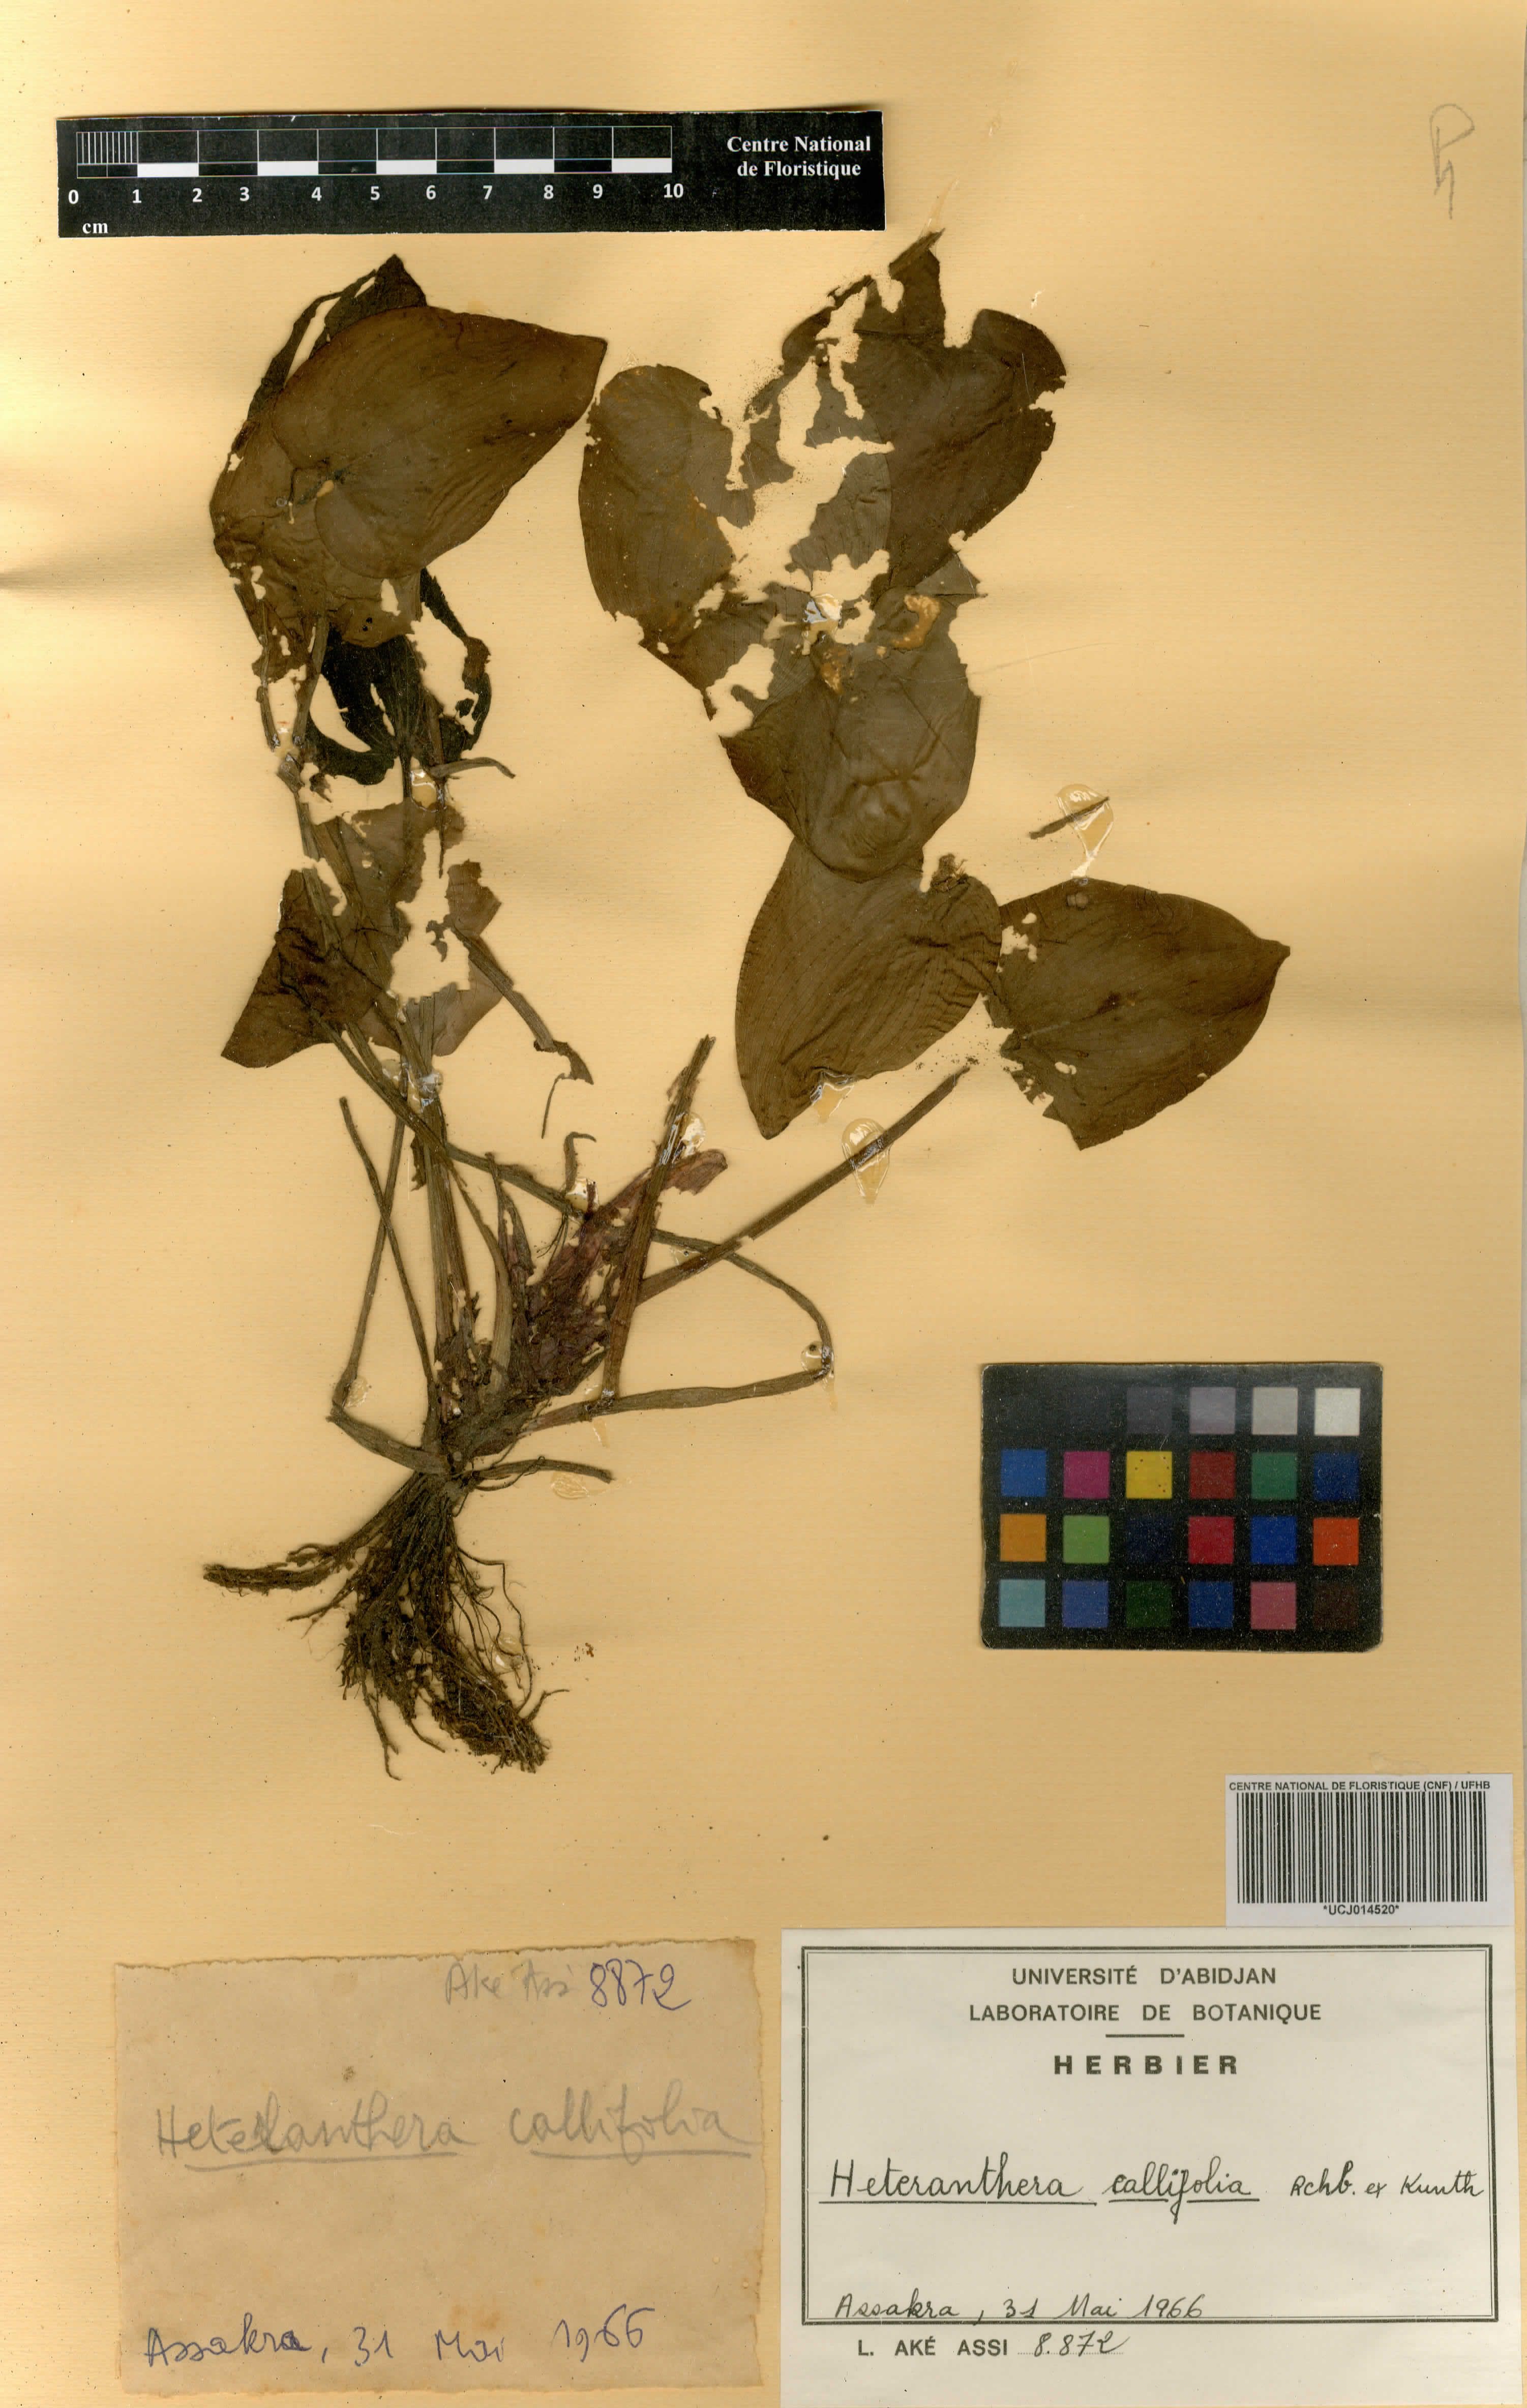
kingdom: Plantae
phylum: Tracheophyta
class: Liliopsida
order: Commelinales
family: Pontederiaceae
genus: Heteranthera
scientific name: Heteranthera callifolia
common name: Mud plantain
